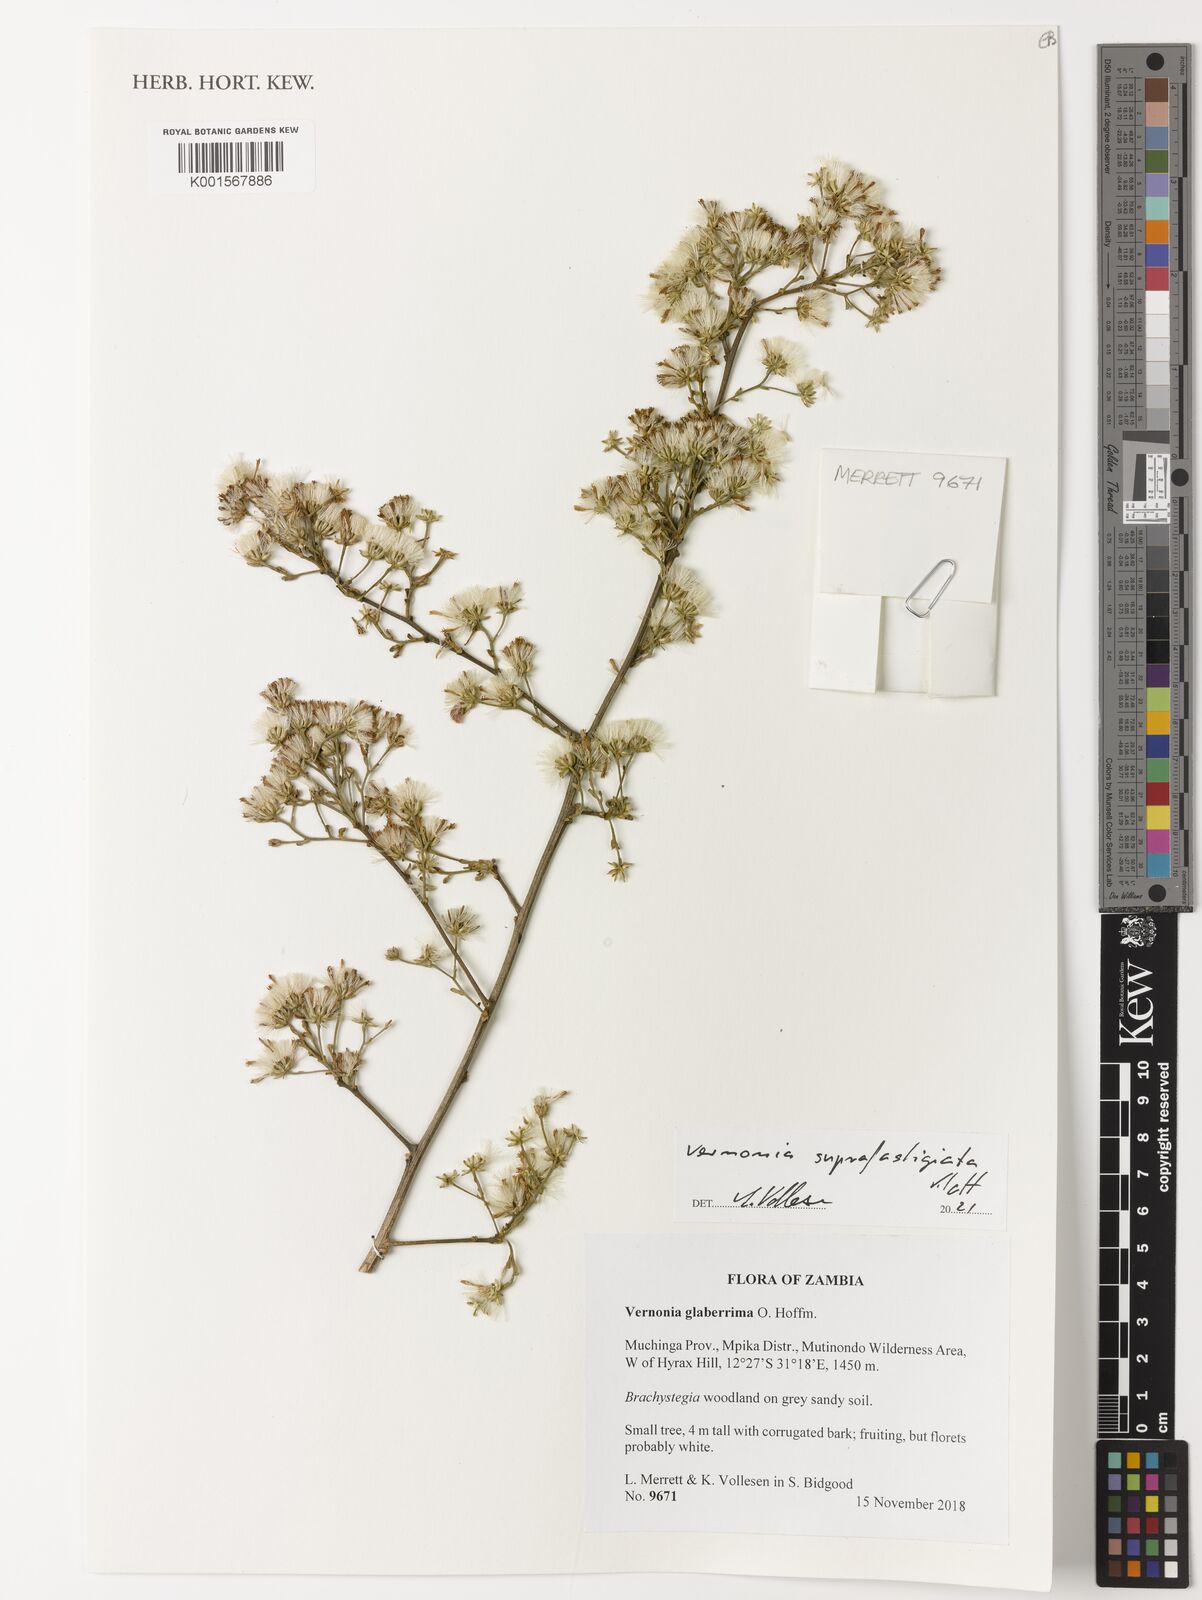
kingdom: Plantae
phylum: Tracheophyta
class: Magnoliopsida
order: Asterales
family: Asteraceae
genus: Vernonia
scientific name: Vernonia suprafastigiata
